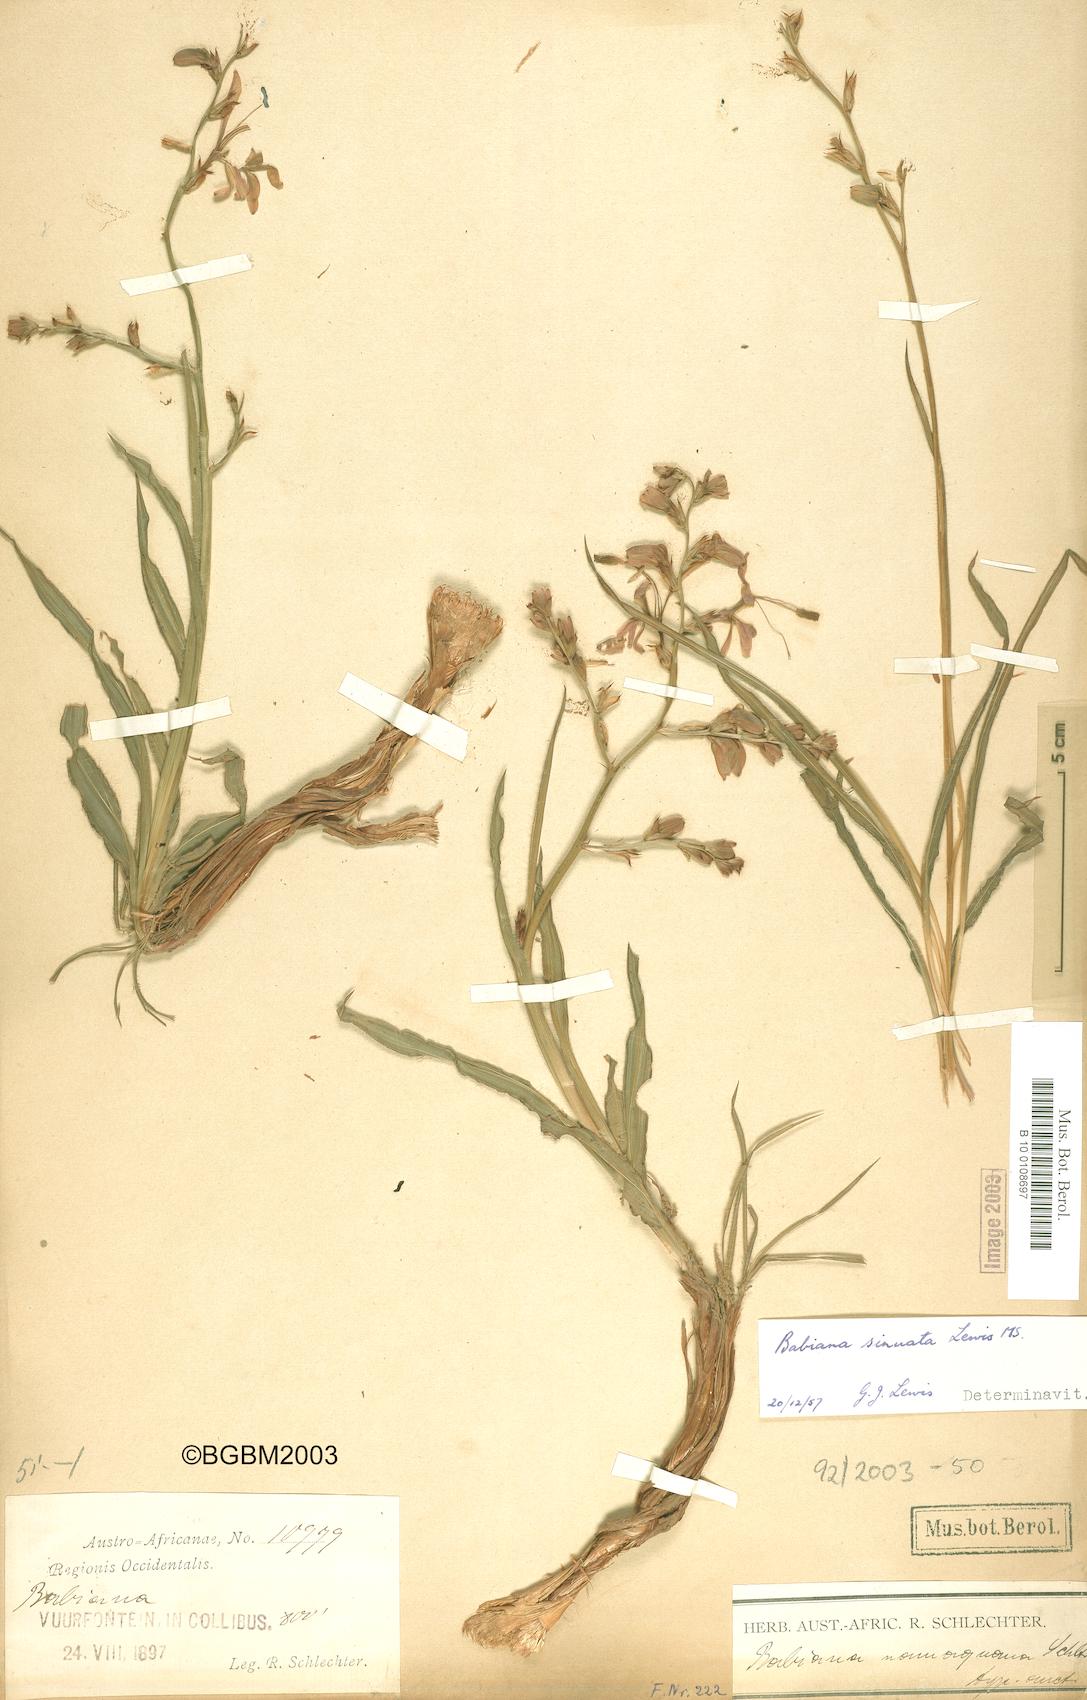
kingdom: Plantae
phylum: Tracheophyta
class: Liliopsida
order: Asparagales
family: Iridaceae
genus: Babiana
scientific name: Babiana sinuata
